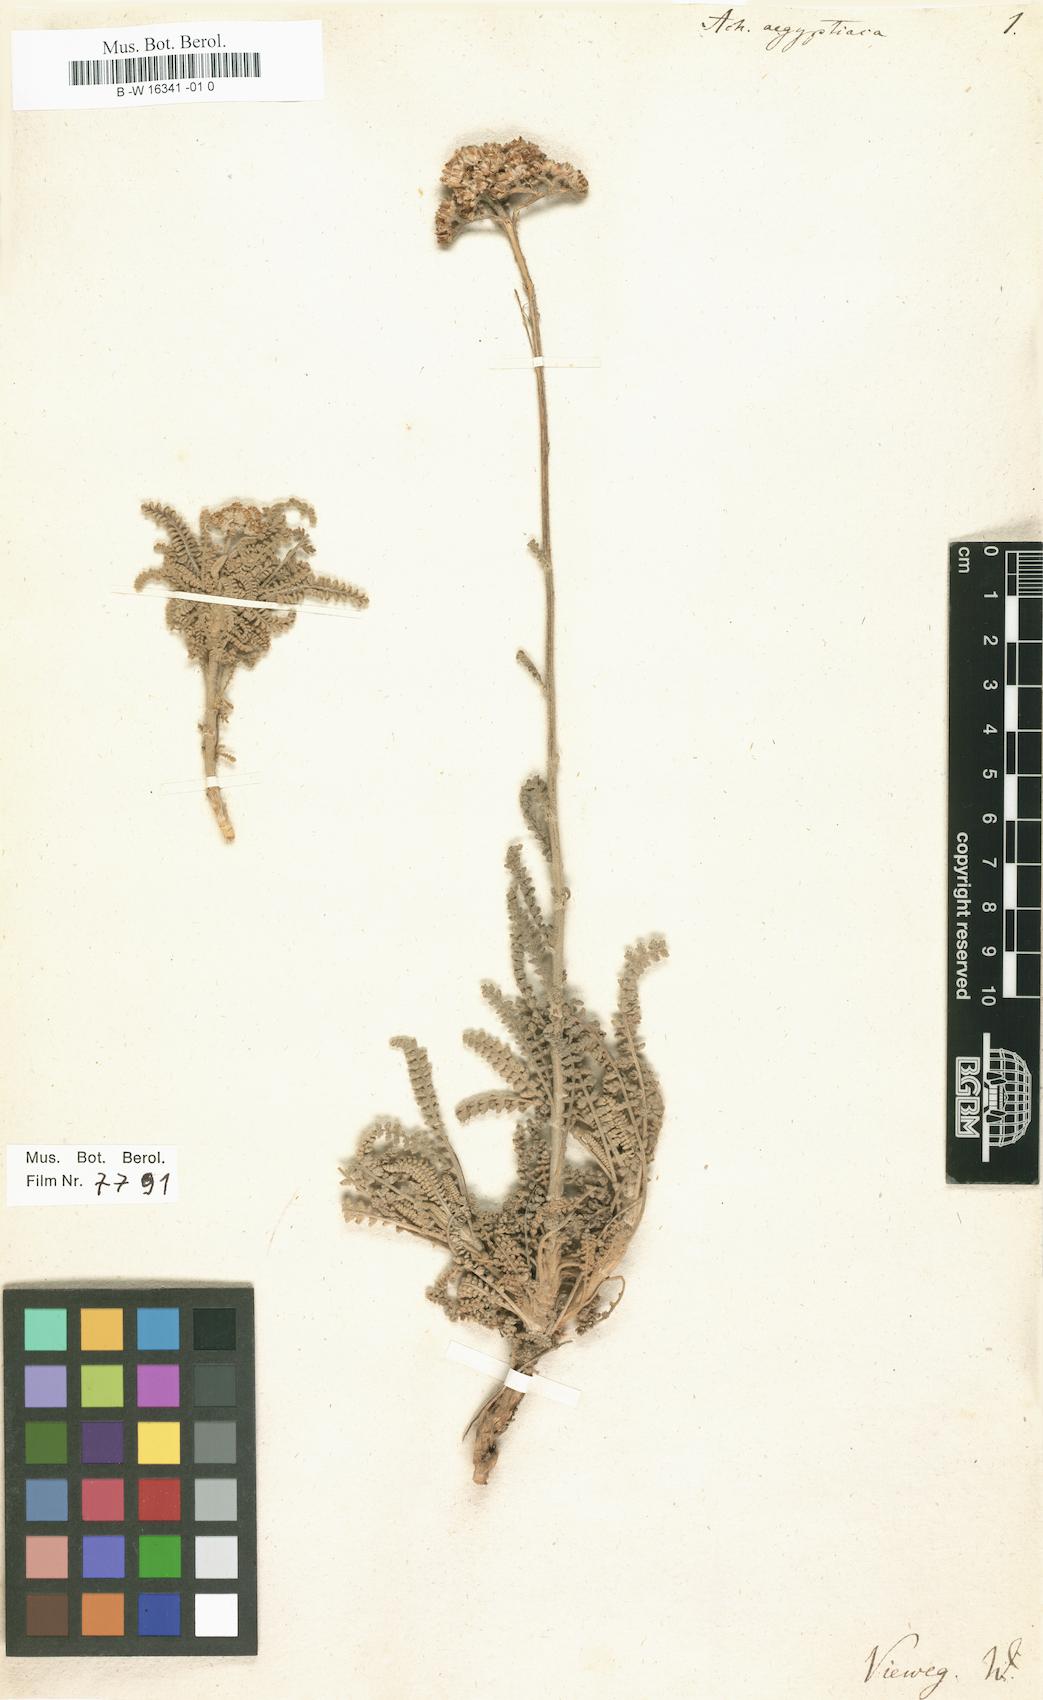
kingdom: Plantae
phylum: Tracheophyta
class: Magnoliopsida
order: Asterales
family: Asteraceae
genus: Achillea
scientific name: Achillea aegyptiaca
